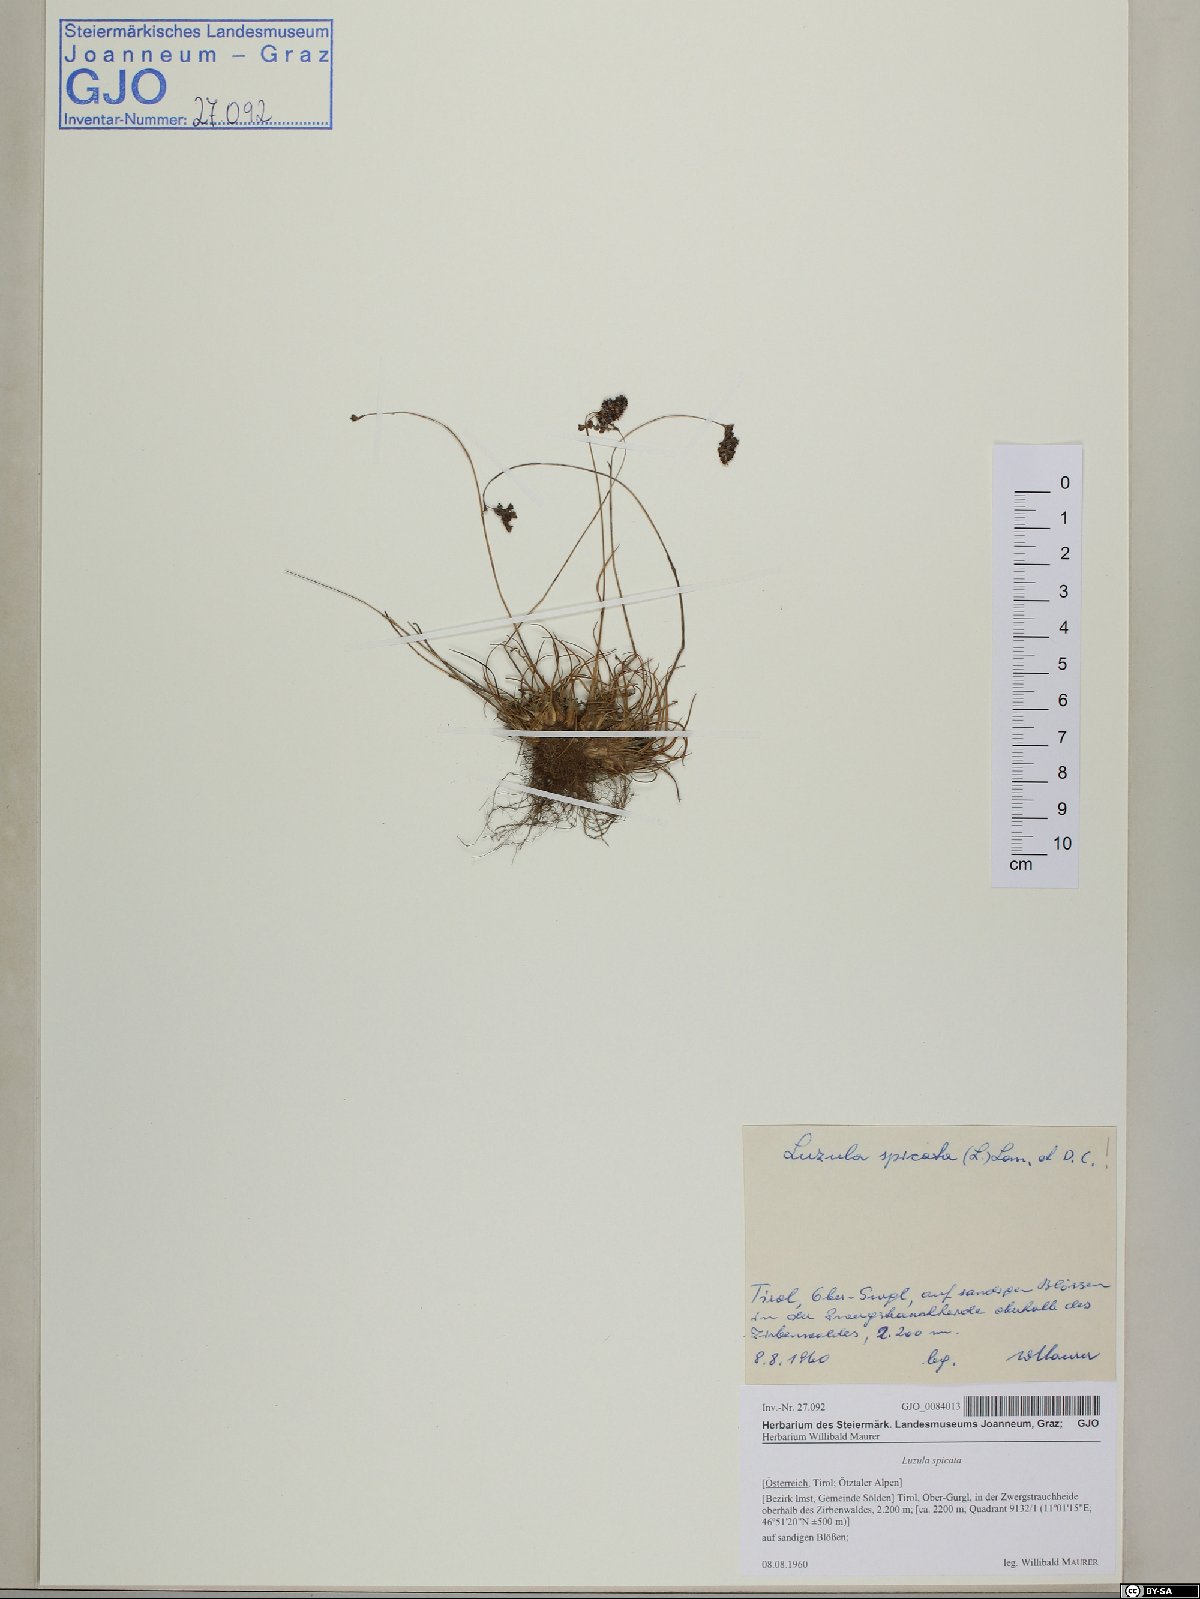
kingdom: Plantae
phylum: Tracheophyta
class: Liliopsida
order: Poales
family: Juncaceae
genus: Luzula
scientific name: Luzula spicata
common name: Spiked wood-rush
